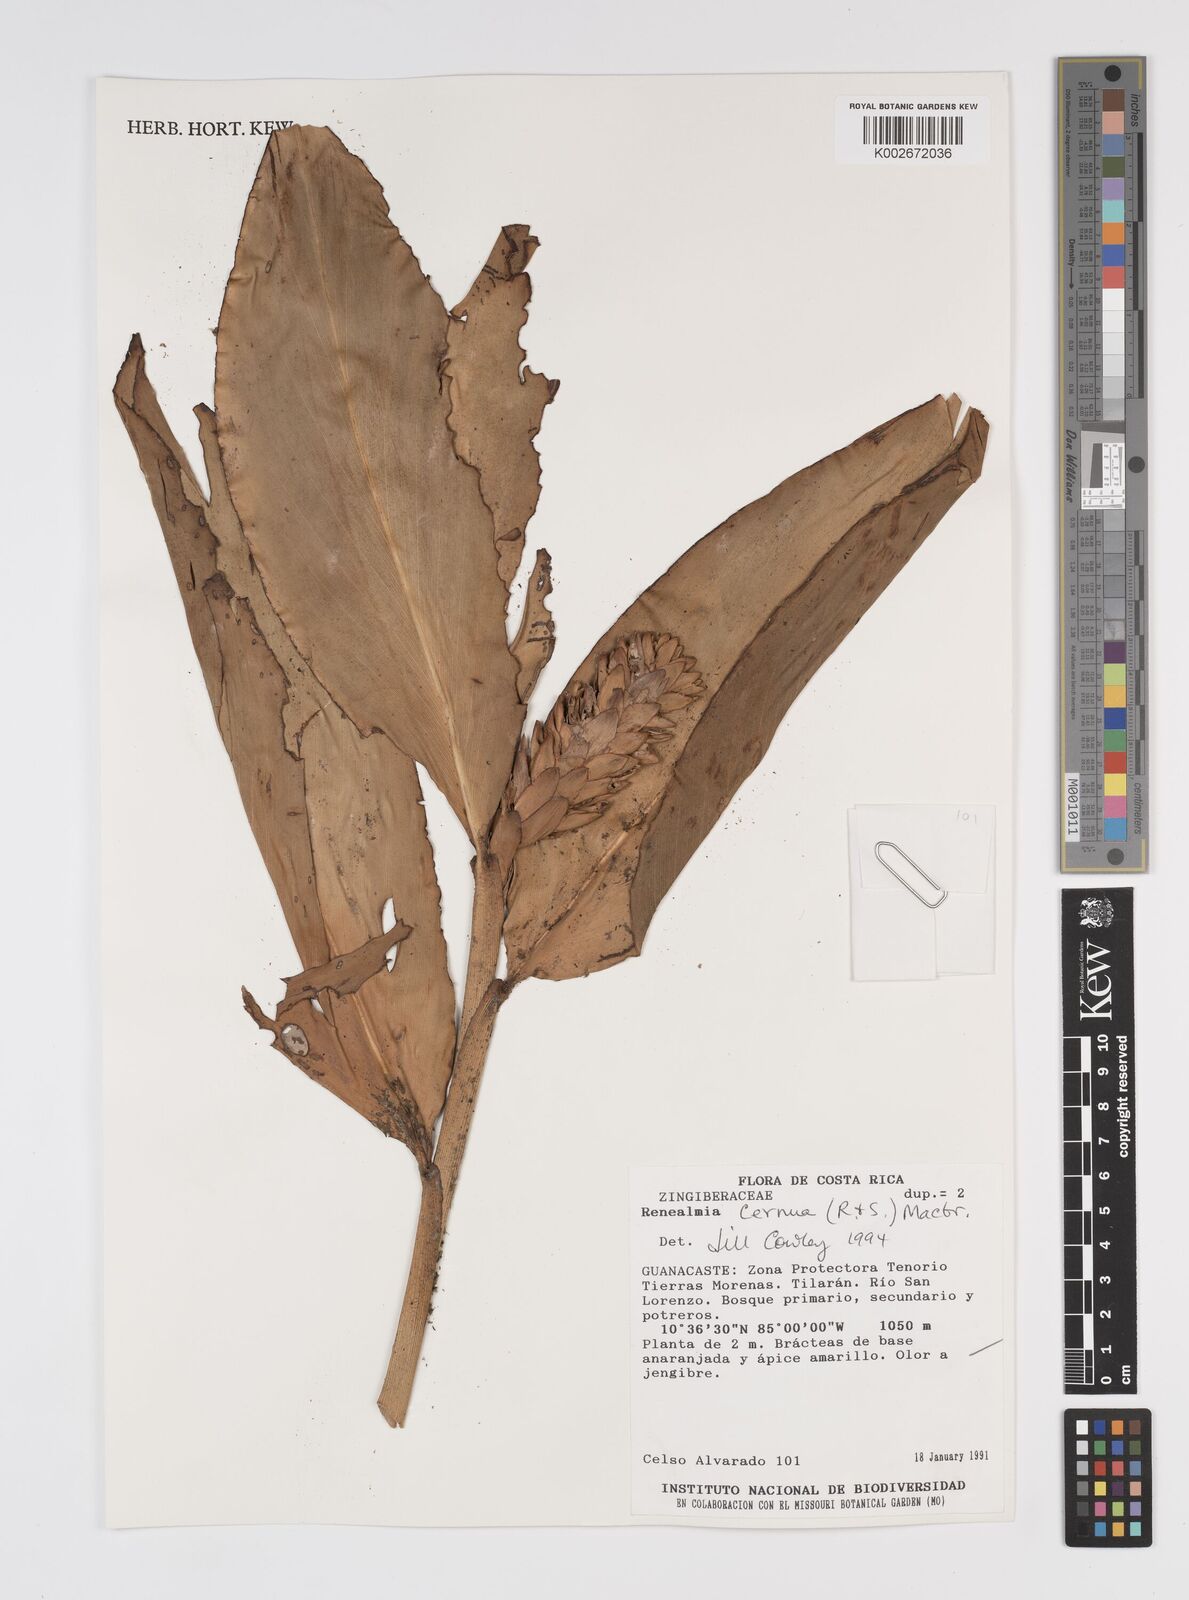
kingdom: Plantae
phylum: Tracheophyta
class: Liliopsida
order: Zingiberales
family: Zingiberaceae
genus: Renealmia
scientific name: Renealmia cernua
